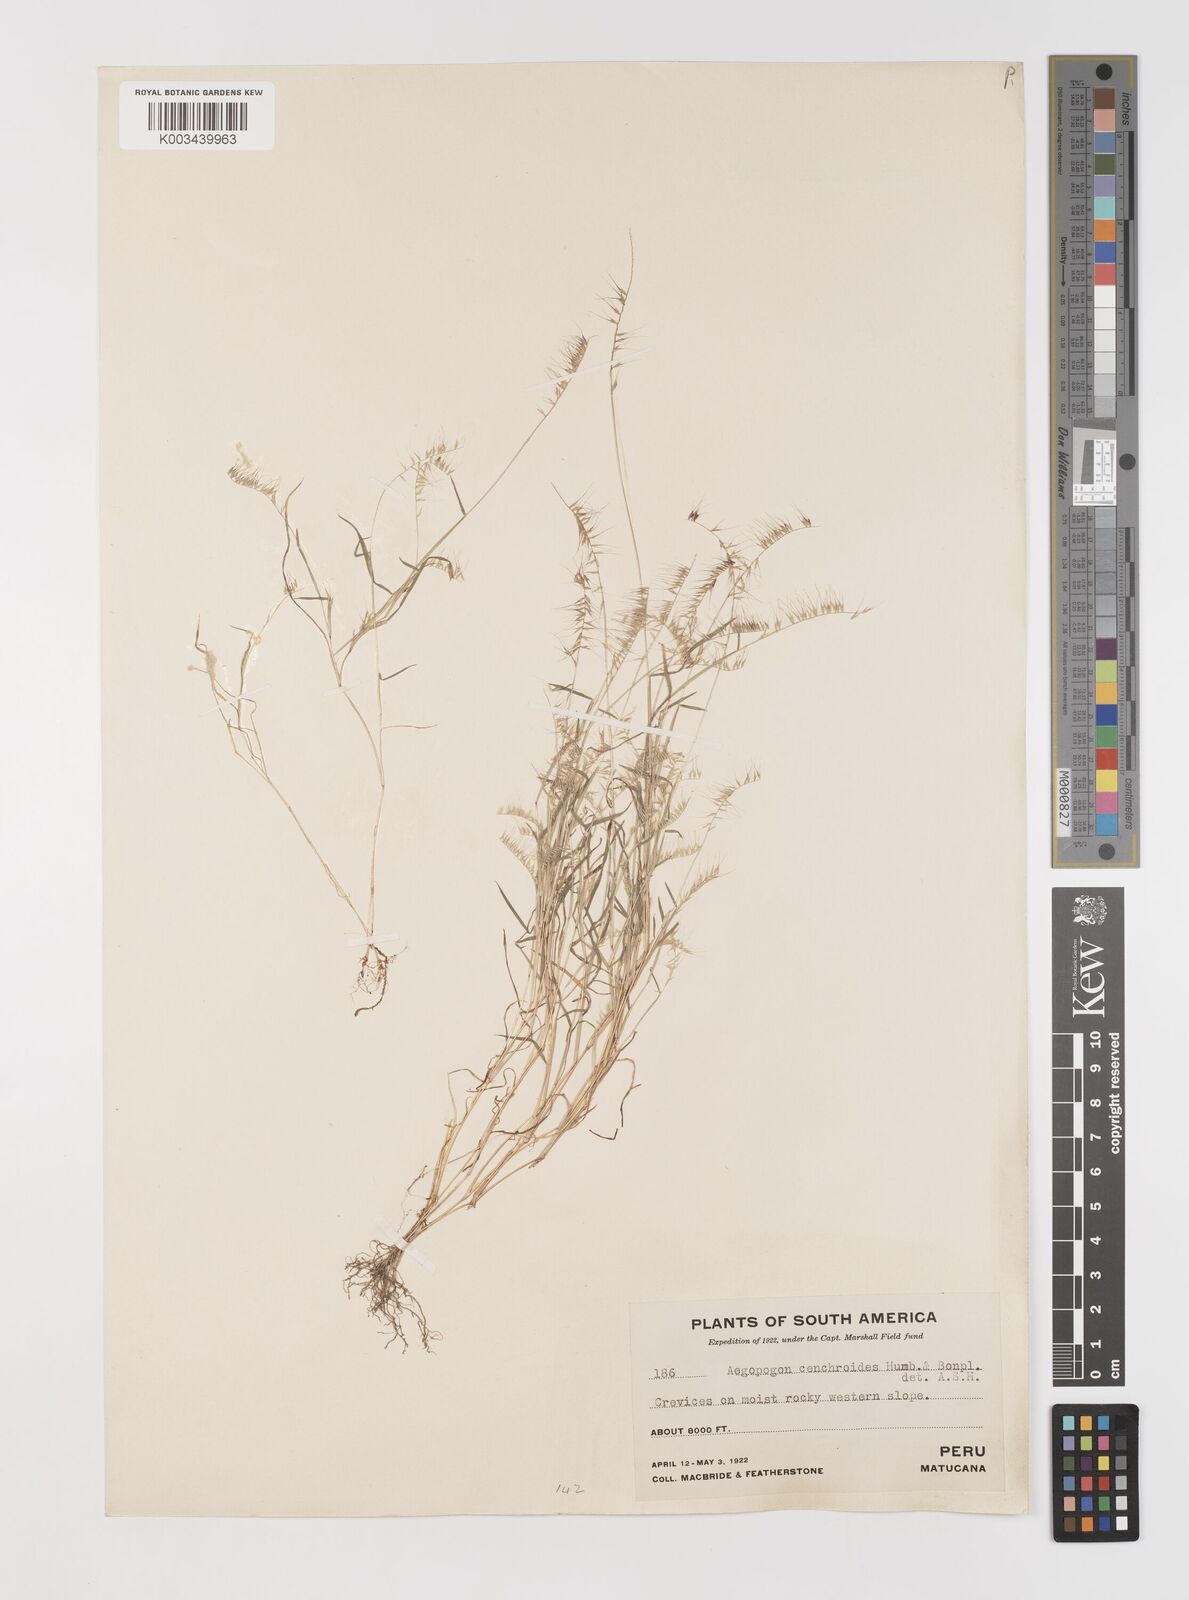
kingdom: Plantae
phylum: Tracheophyta
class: Liliopsida
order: Poales
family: Poaceae
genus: Muhlenbergia
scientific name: Muhlenbergia bryophilus
